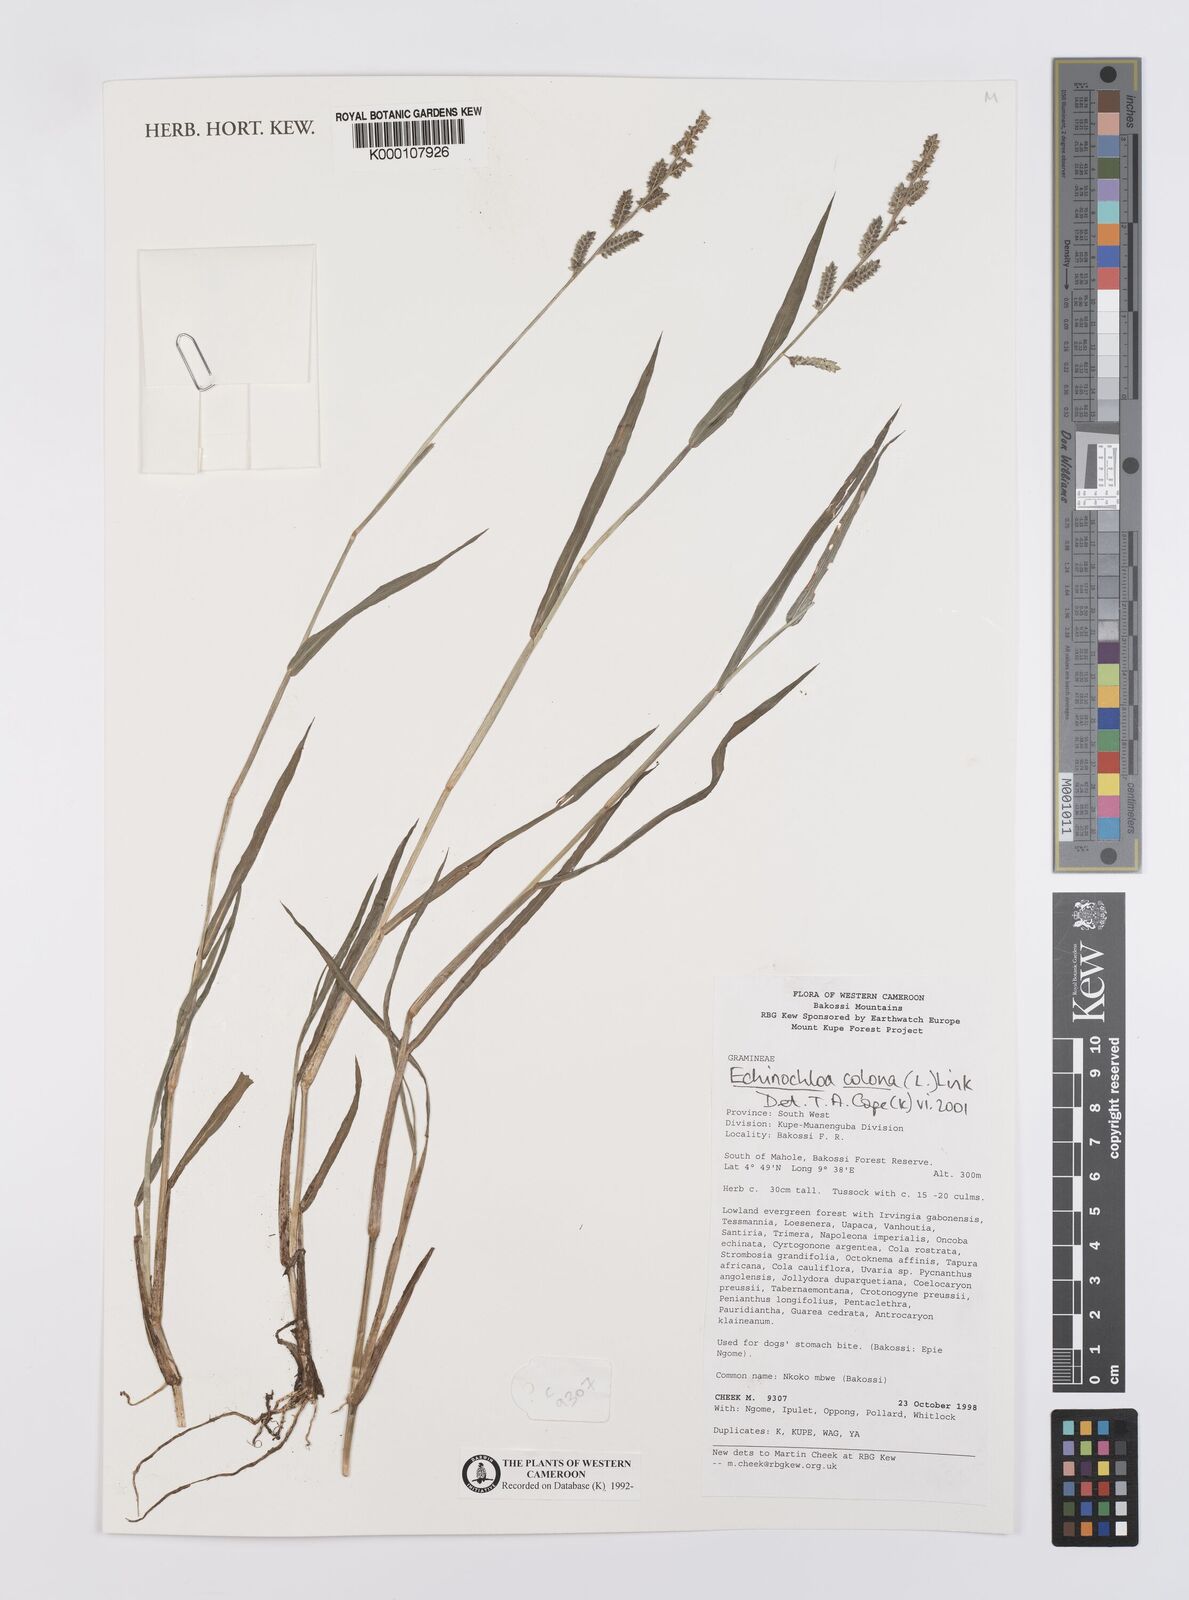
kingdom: Plantae
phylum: Tracheophyta
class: Liliopsida
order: Poales
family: Poaceae
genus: Echinochloa
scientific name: Echinochloa colonum
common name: Jungle rice
